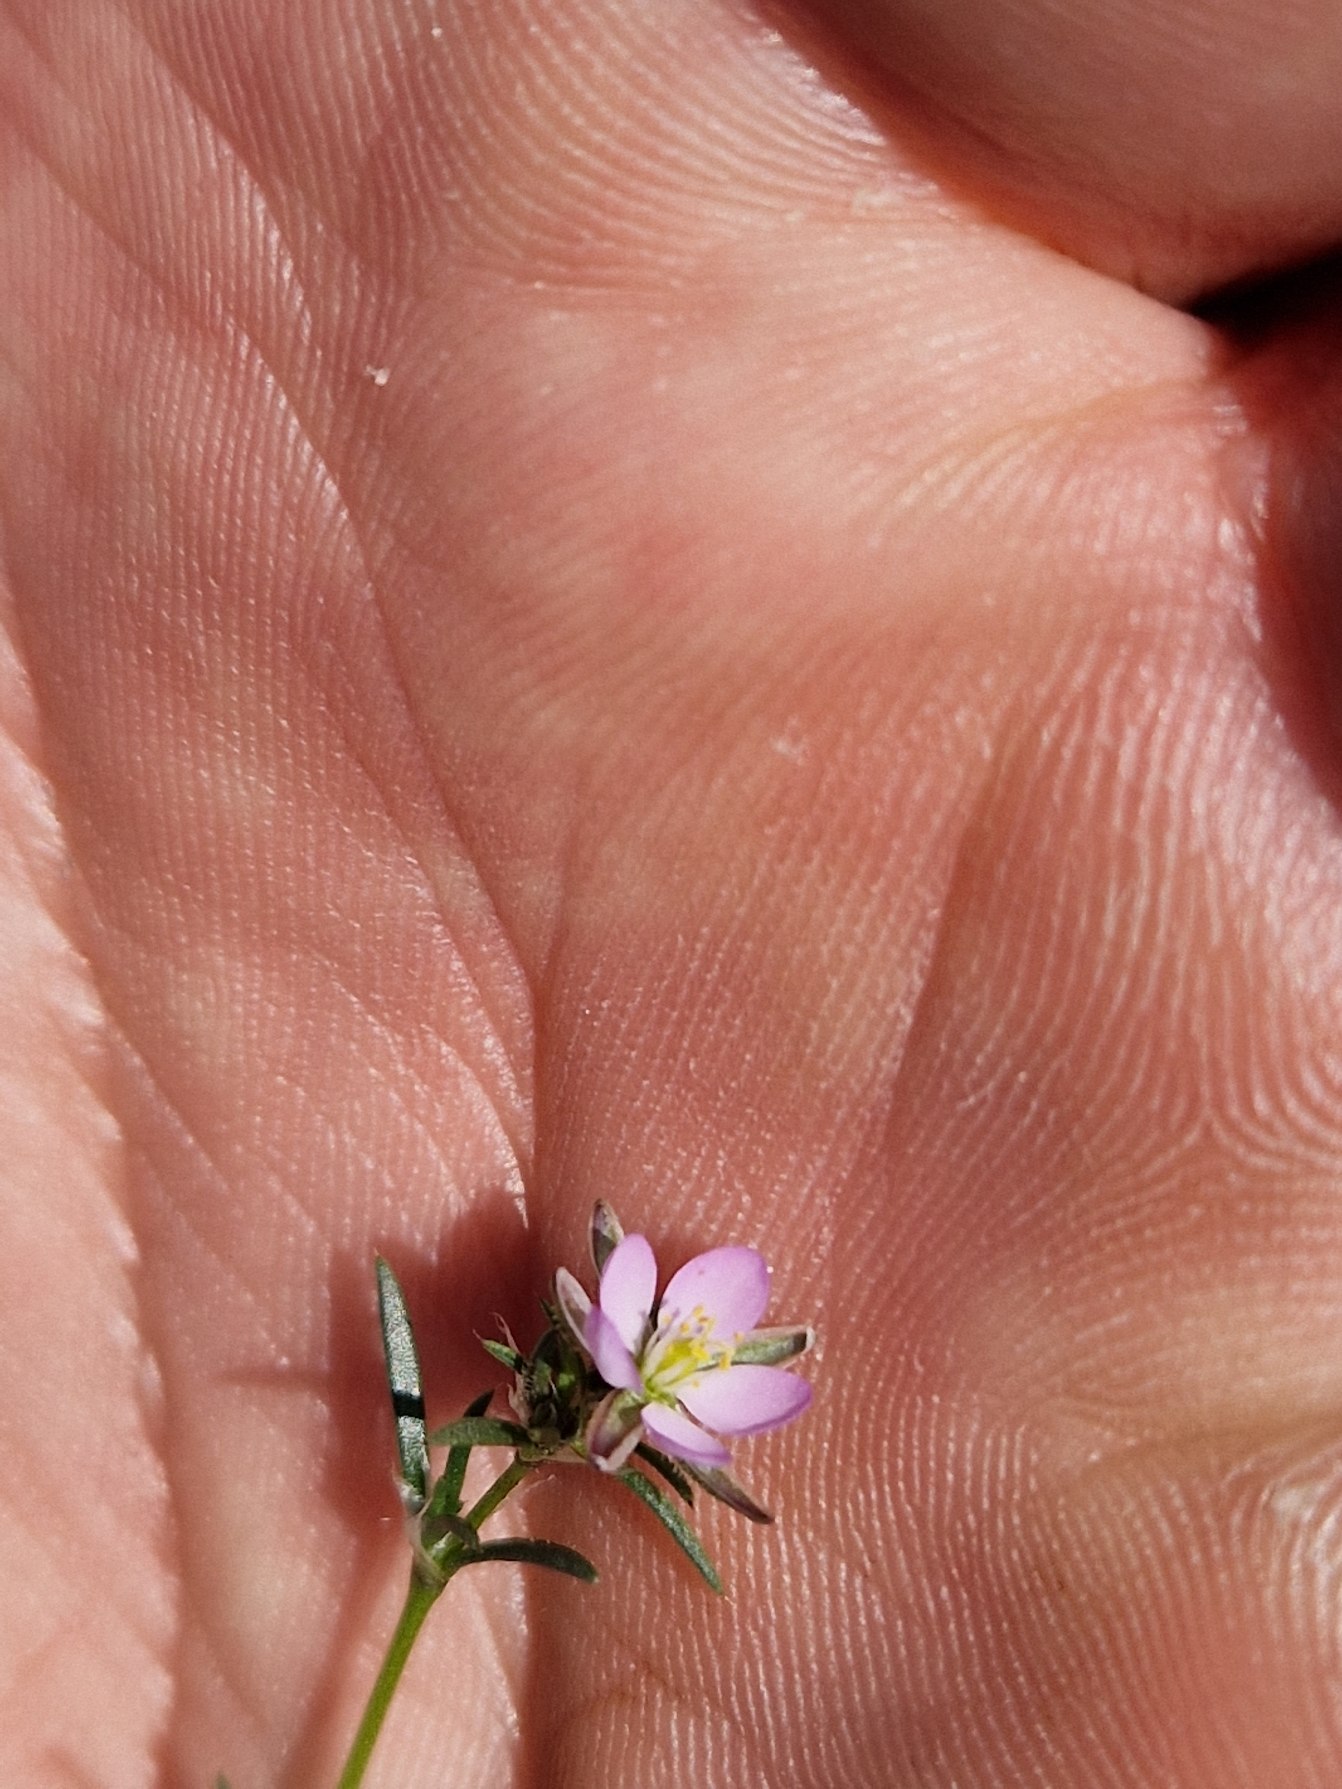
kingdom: Plantae
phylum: Tracheophyta
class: Magnoliopsida
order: Caryophyllales
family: Caryophyllaceae
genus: Spergularia
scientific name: Spergularia rubra
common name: Mark-hindeknæ
